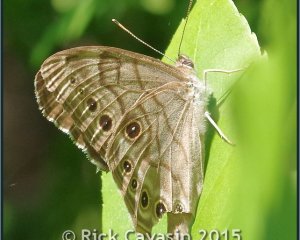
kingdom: Animalia
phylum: Arthropoda
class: Insecta
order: Lepidoptera
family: Nymphalidae
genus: Lethe
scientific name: Lethe anthedon
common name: Northern Pearly-Eye
